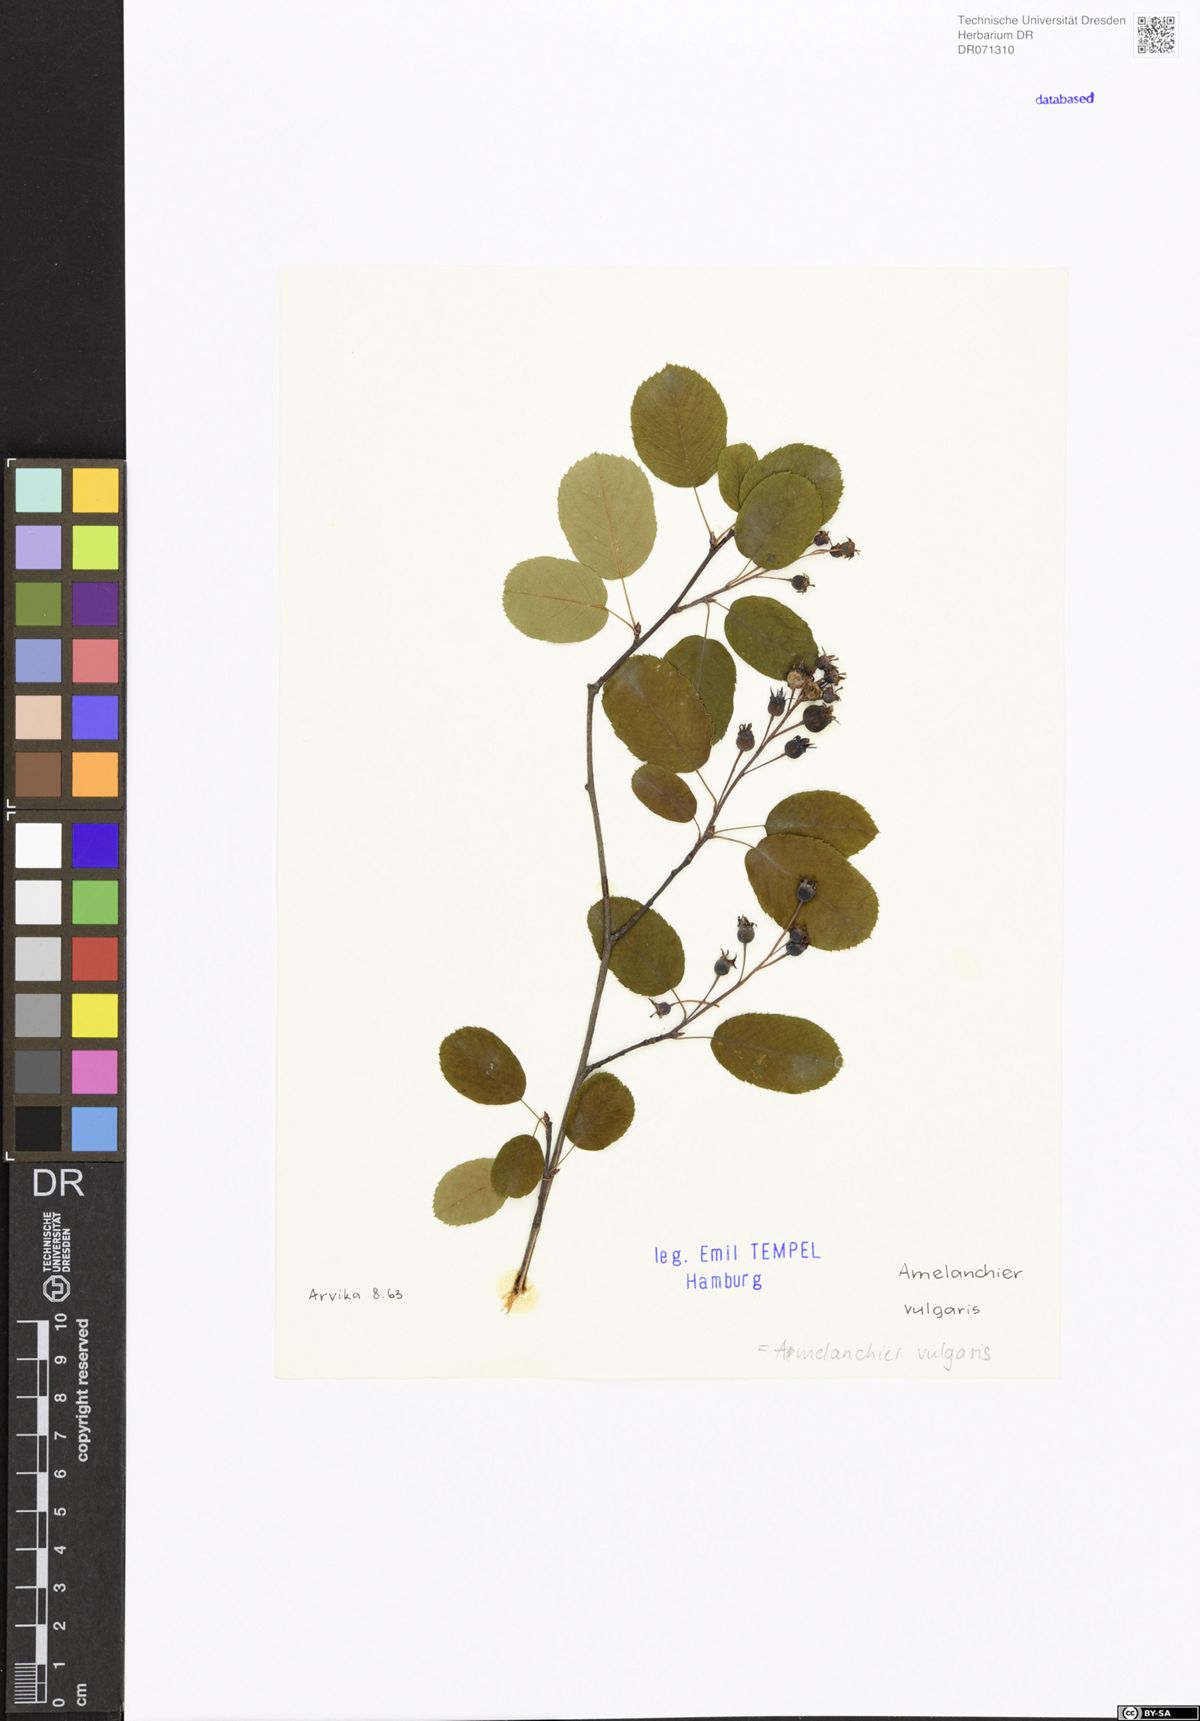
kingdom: Plantae
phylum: Tracheophyta
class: Magnoliopsida
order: Rosales
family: Rosaceae
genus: Amelanchier
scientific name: Amelanchier ovalis
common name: Serviceberry
